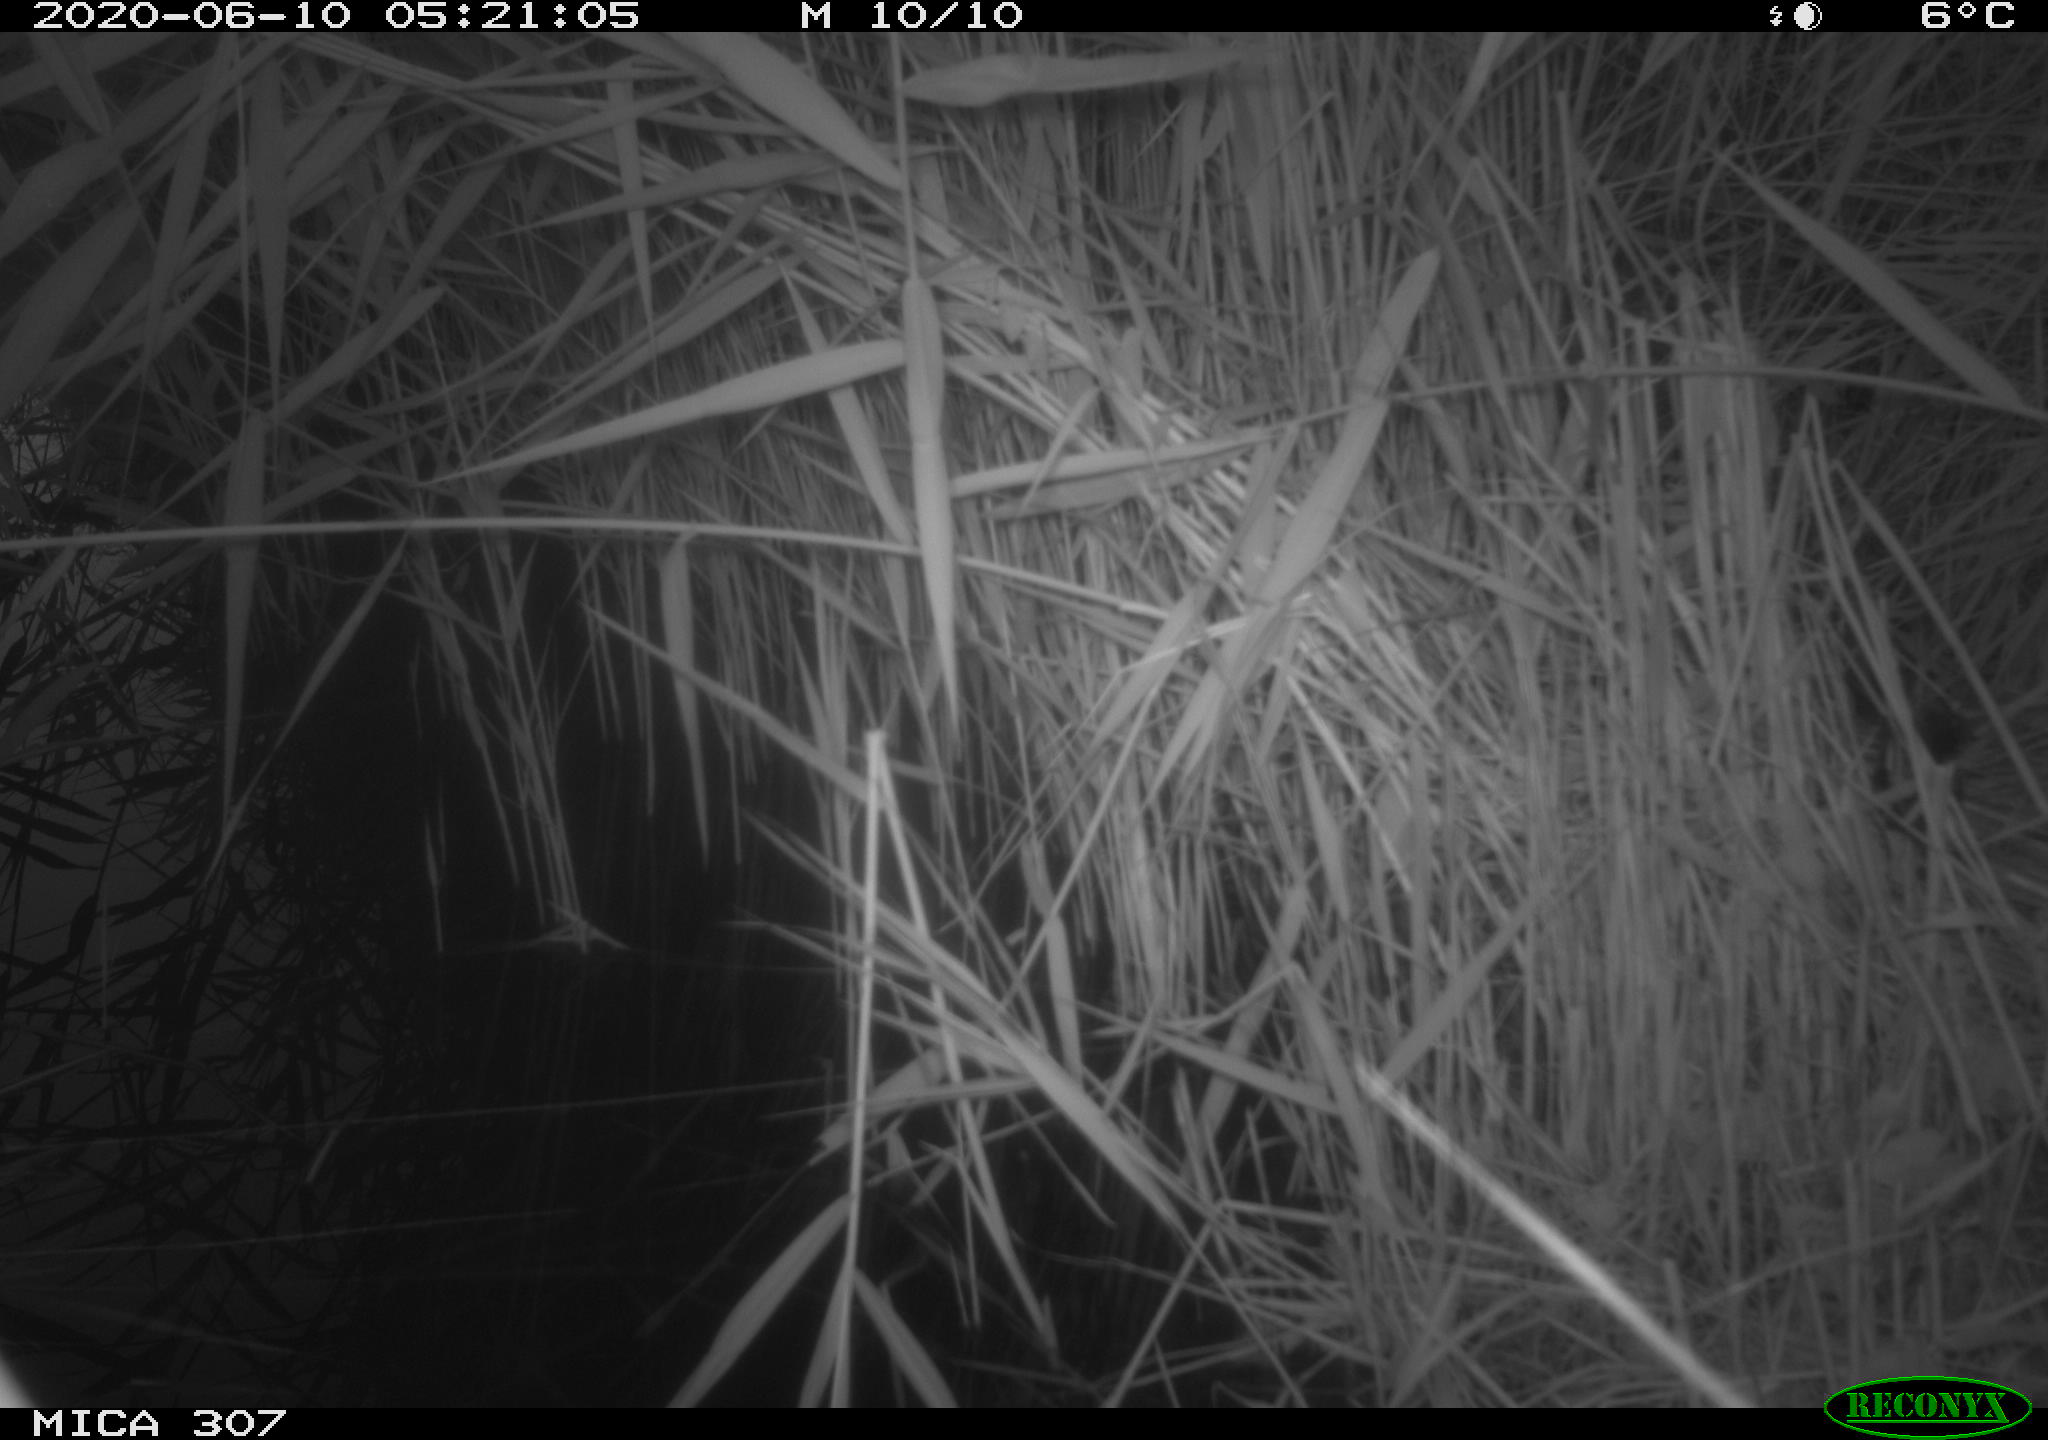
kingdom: Animalia
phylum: Chordata
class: Mammalia
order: Rodentia
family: Muridae
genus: Rattus
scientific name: Rattus norvegicus
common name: Brown rat
